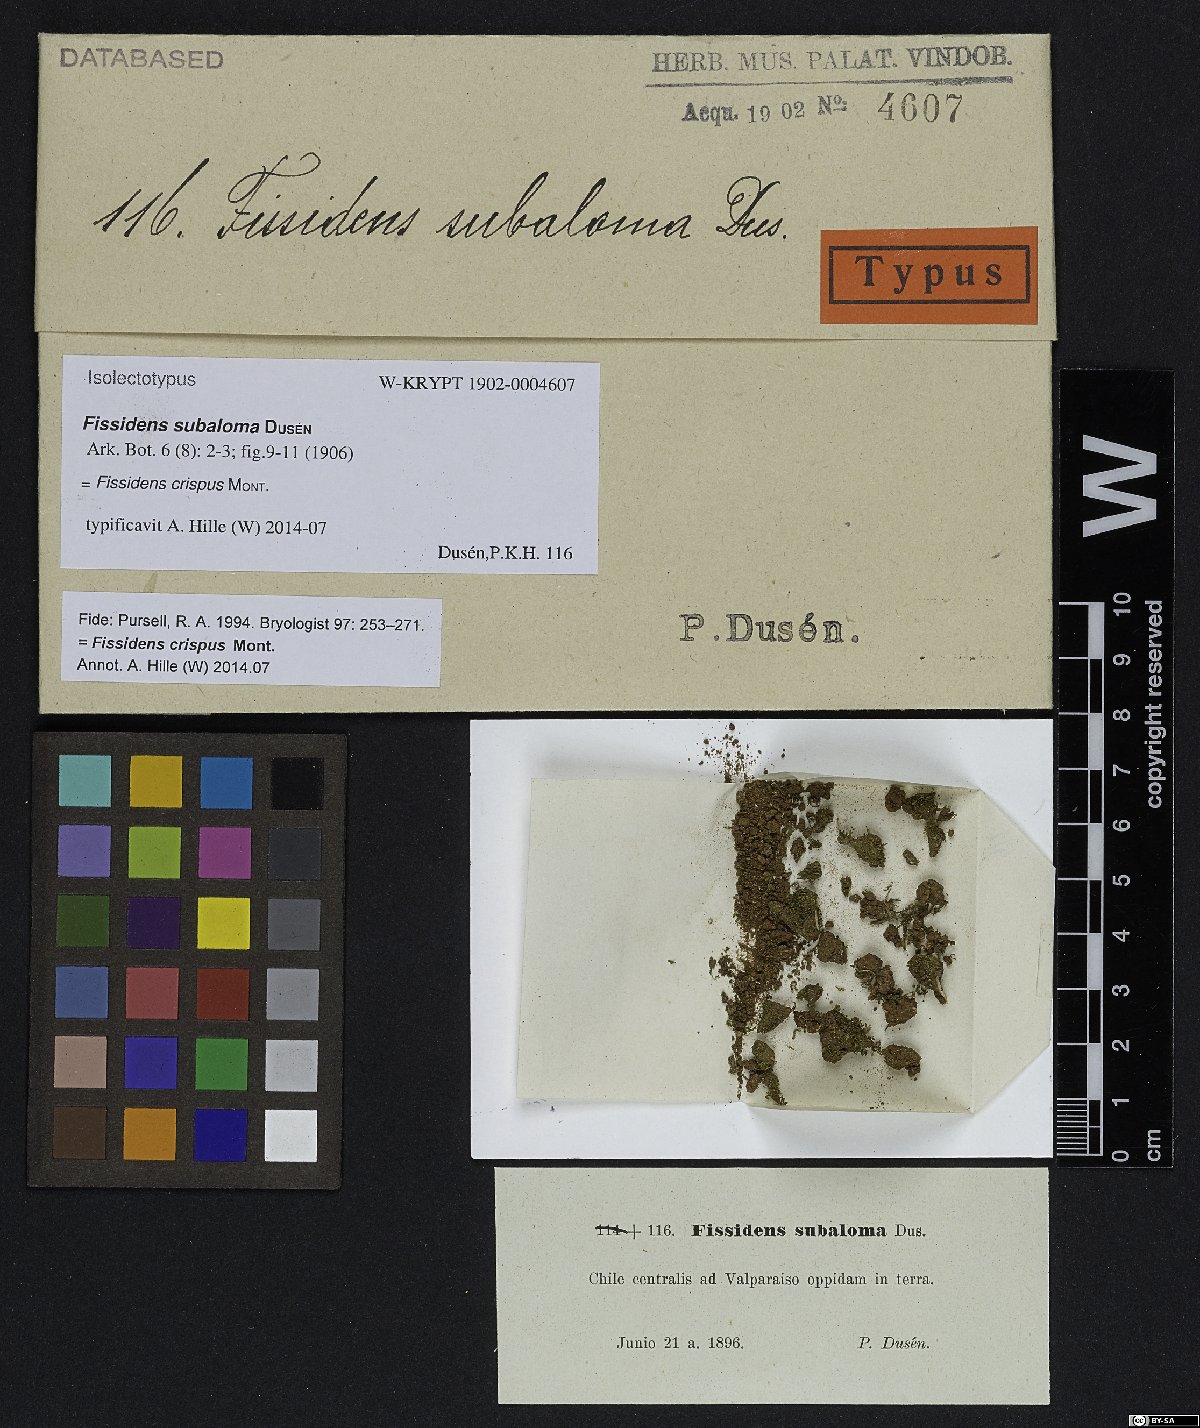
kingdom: Plantae
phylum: Bryophyta
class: Bryopsida
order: Dicranales
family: Fissidentaceae
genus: Fissidens
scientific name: Fissidens crispus
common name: Herzog's pocket-moss
